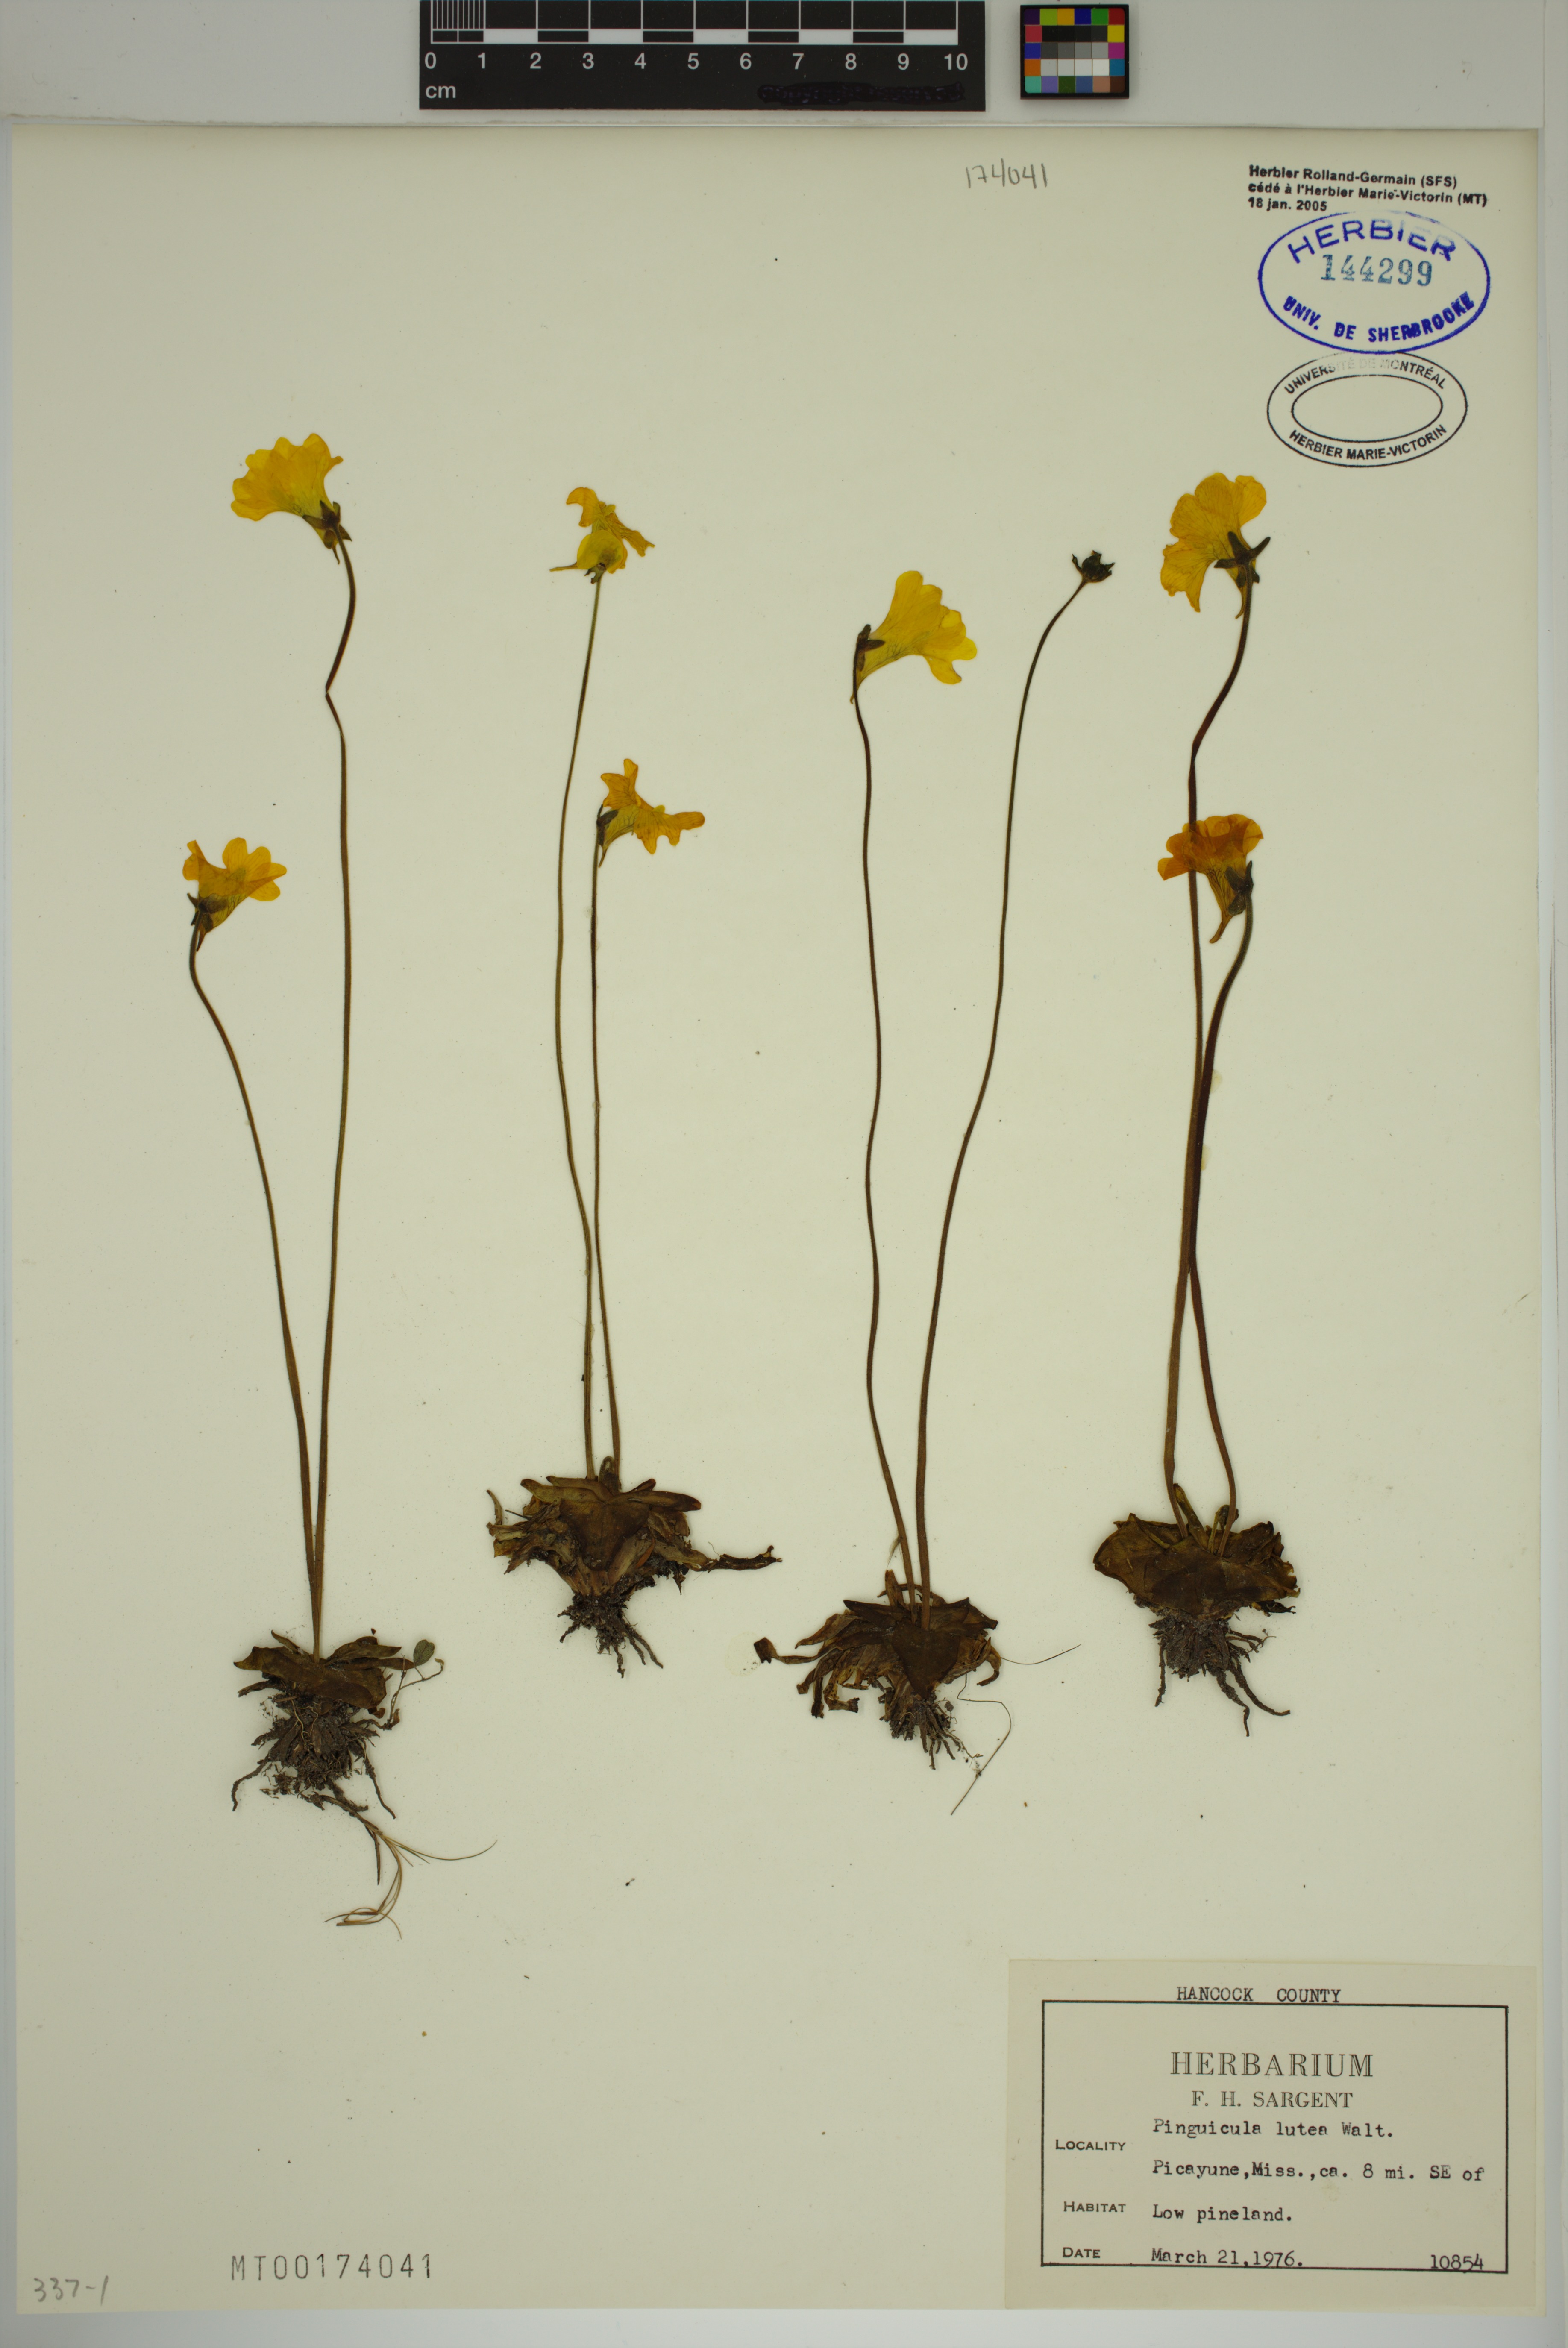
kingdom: Plantae
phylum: Tracheophyta
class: Magnoliopsida
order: Lamiales
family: Lentibulariaceae
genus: Pinguicula
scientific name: Pinguicula lutea
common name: Yellow butterwort
